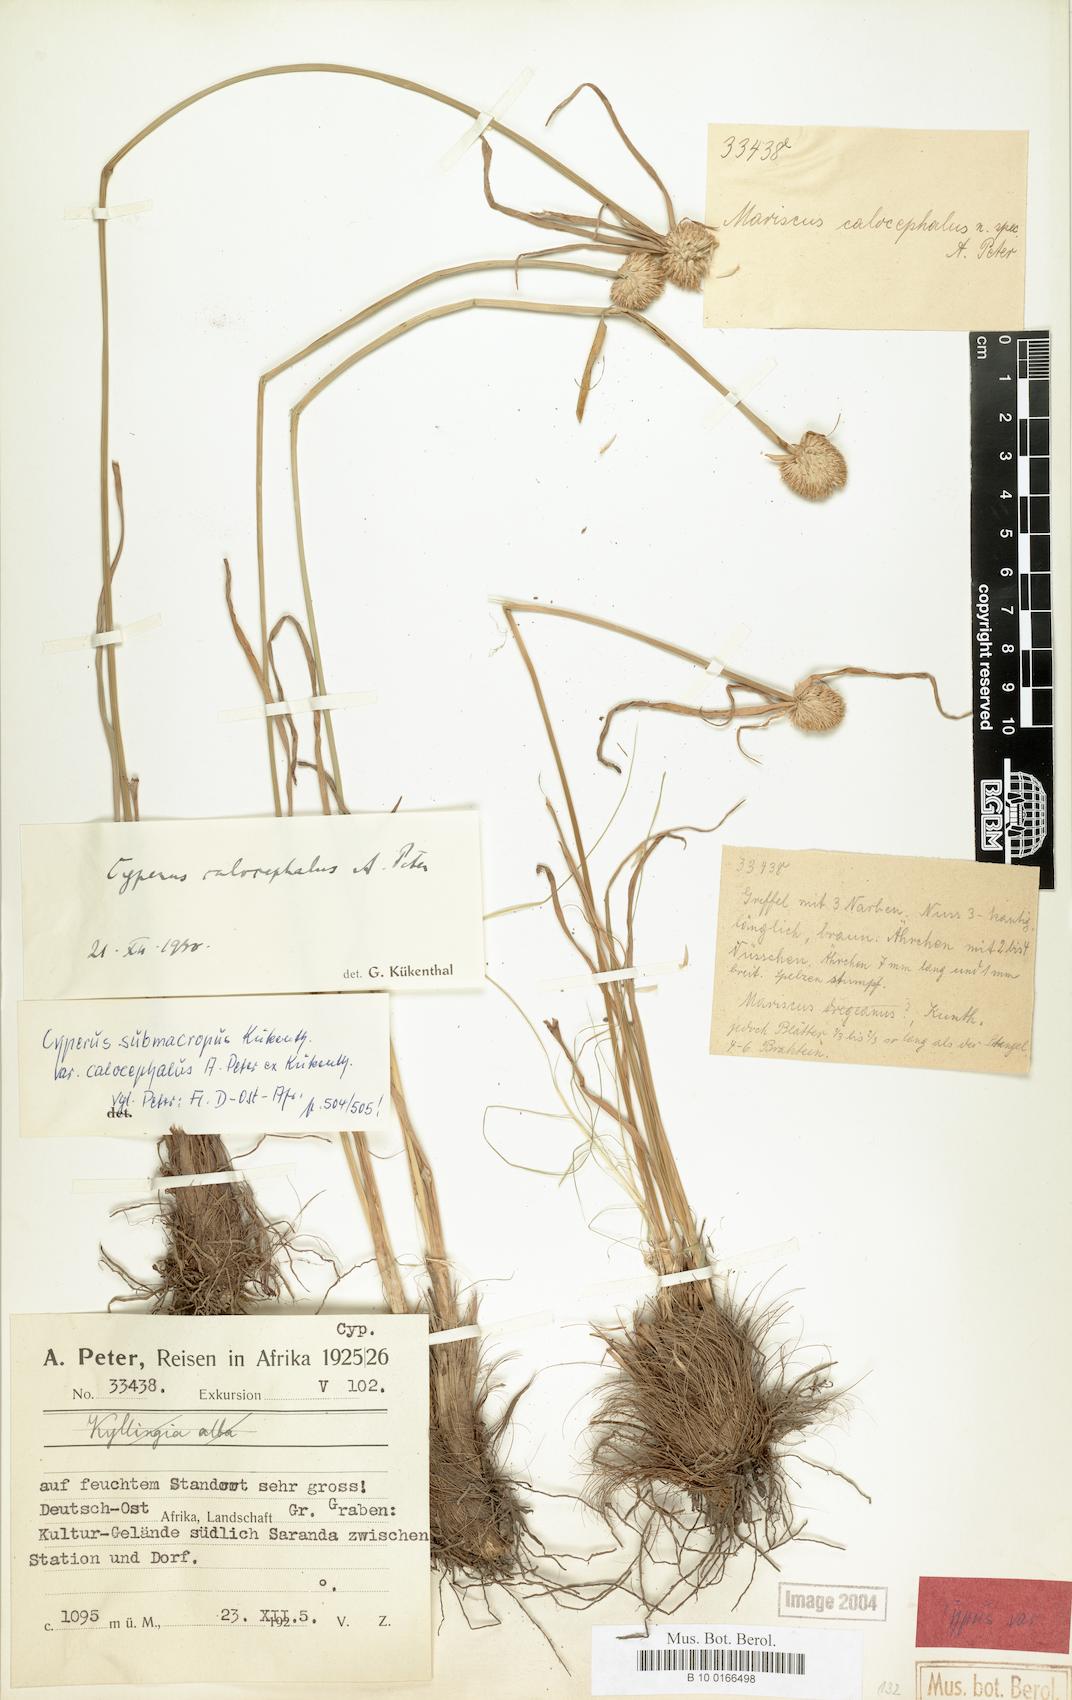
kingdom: Plantae
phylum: Tracheophyta
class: Liliopsida
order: Poales
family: Cyperaceae
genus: Cyperus
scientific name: Cyperus mollipes
